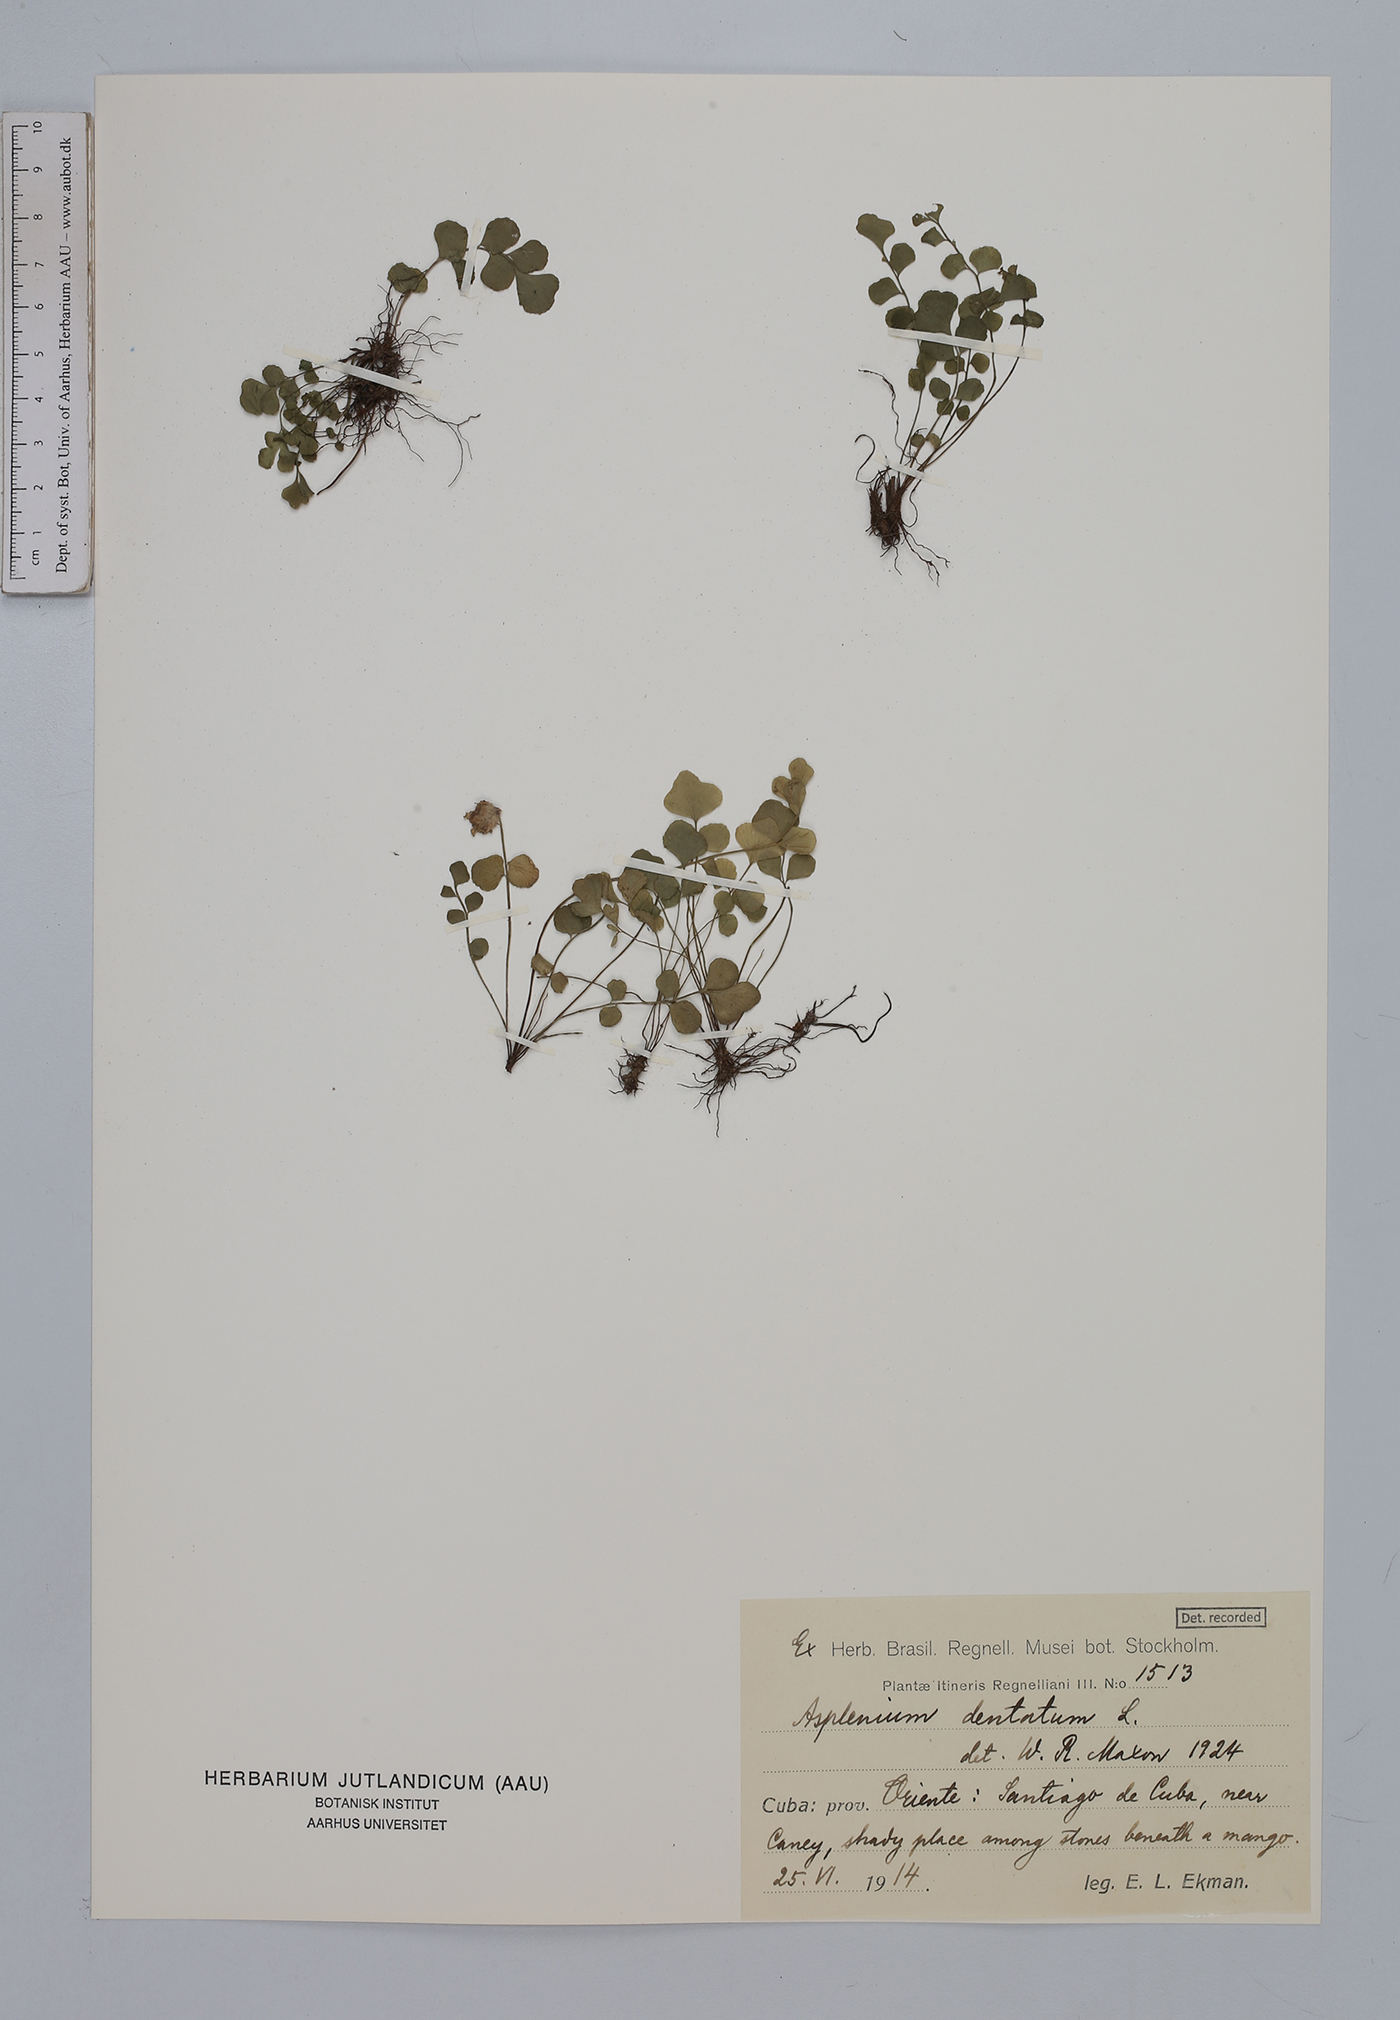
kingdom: Plantae
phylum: Tracheophyta
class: Polypodiopsida
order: Polypodiales
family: Aspleniaceae
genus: Asplenium
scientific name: Asplenium dentatum
